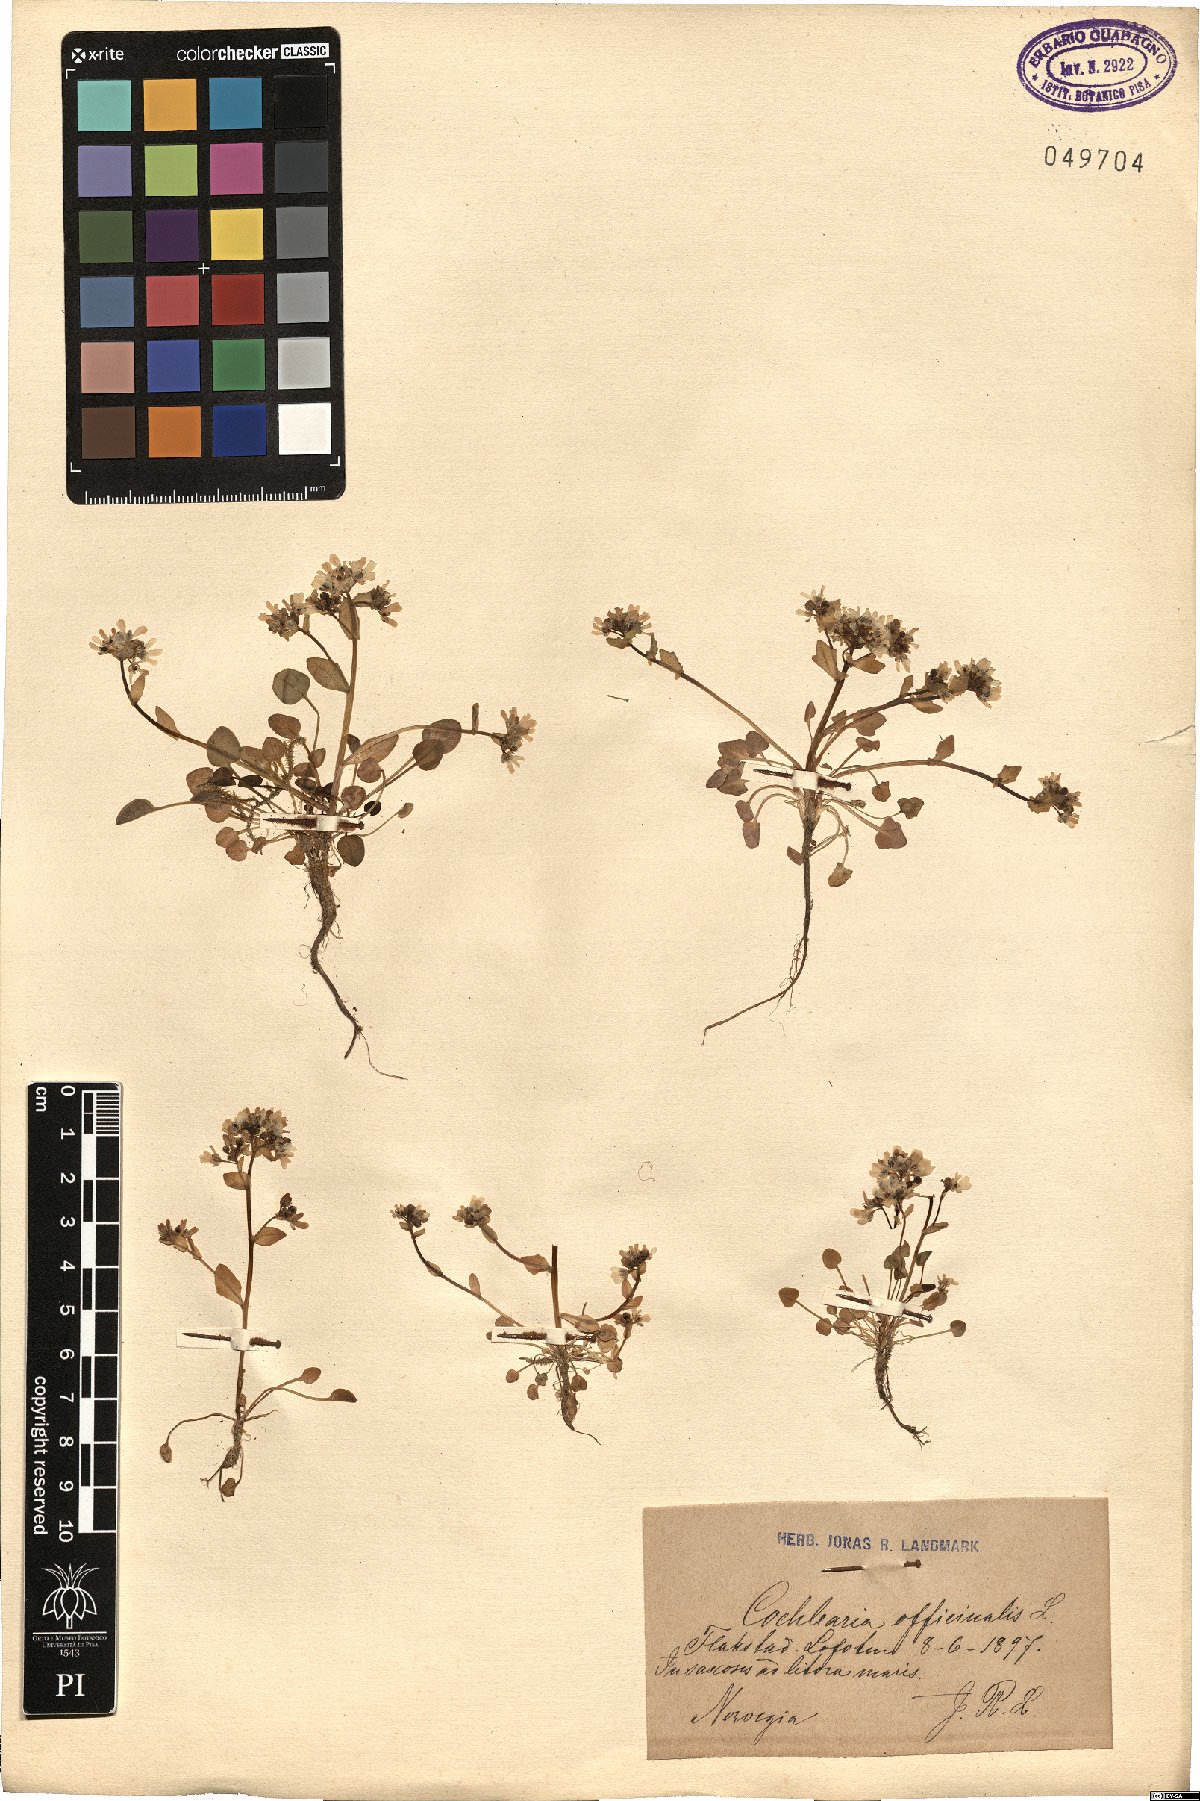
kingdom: Plantae
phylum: Tracheophyta
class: Magnoliopsida
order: Brassicales
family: Brassicaceae
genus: Cochlearia
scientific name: Cochlearia officinalis
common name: Scurvy-grass
